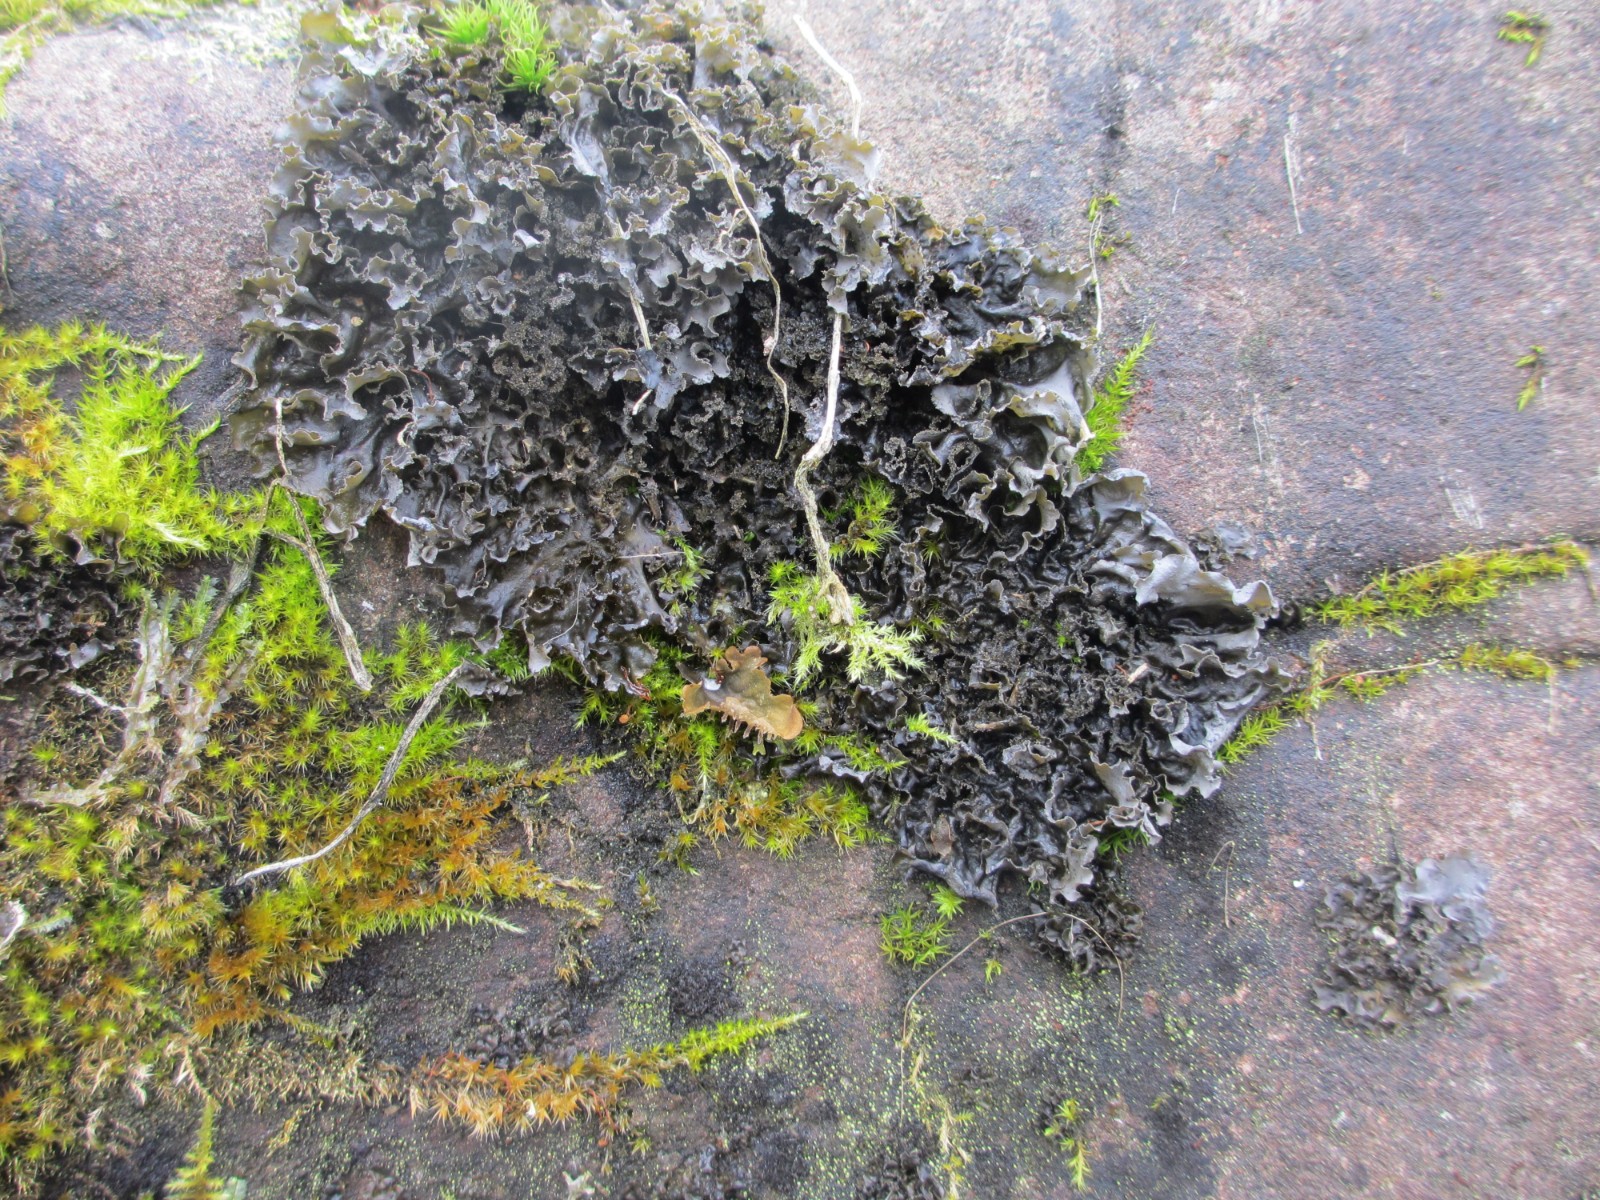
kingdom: Fungi
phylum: Ascomycota
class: Lecanoromycetes
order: Peltigerales
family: Collemataceae
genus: Scytinium
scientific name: Scytinium
